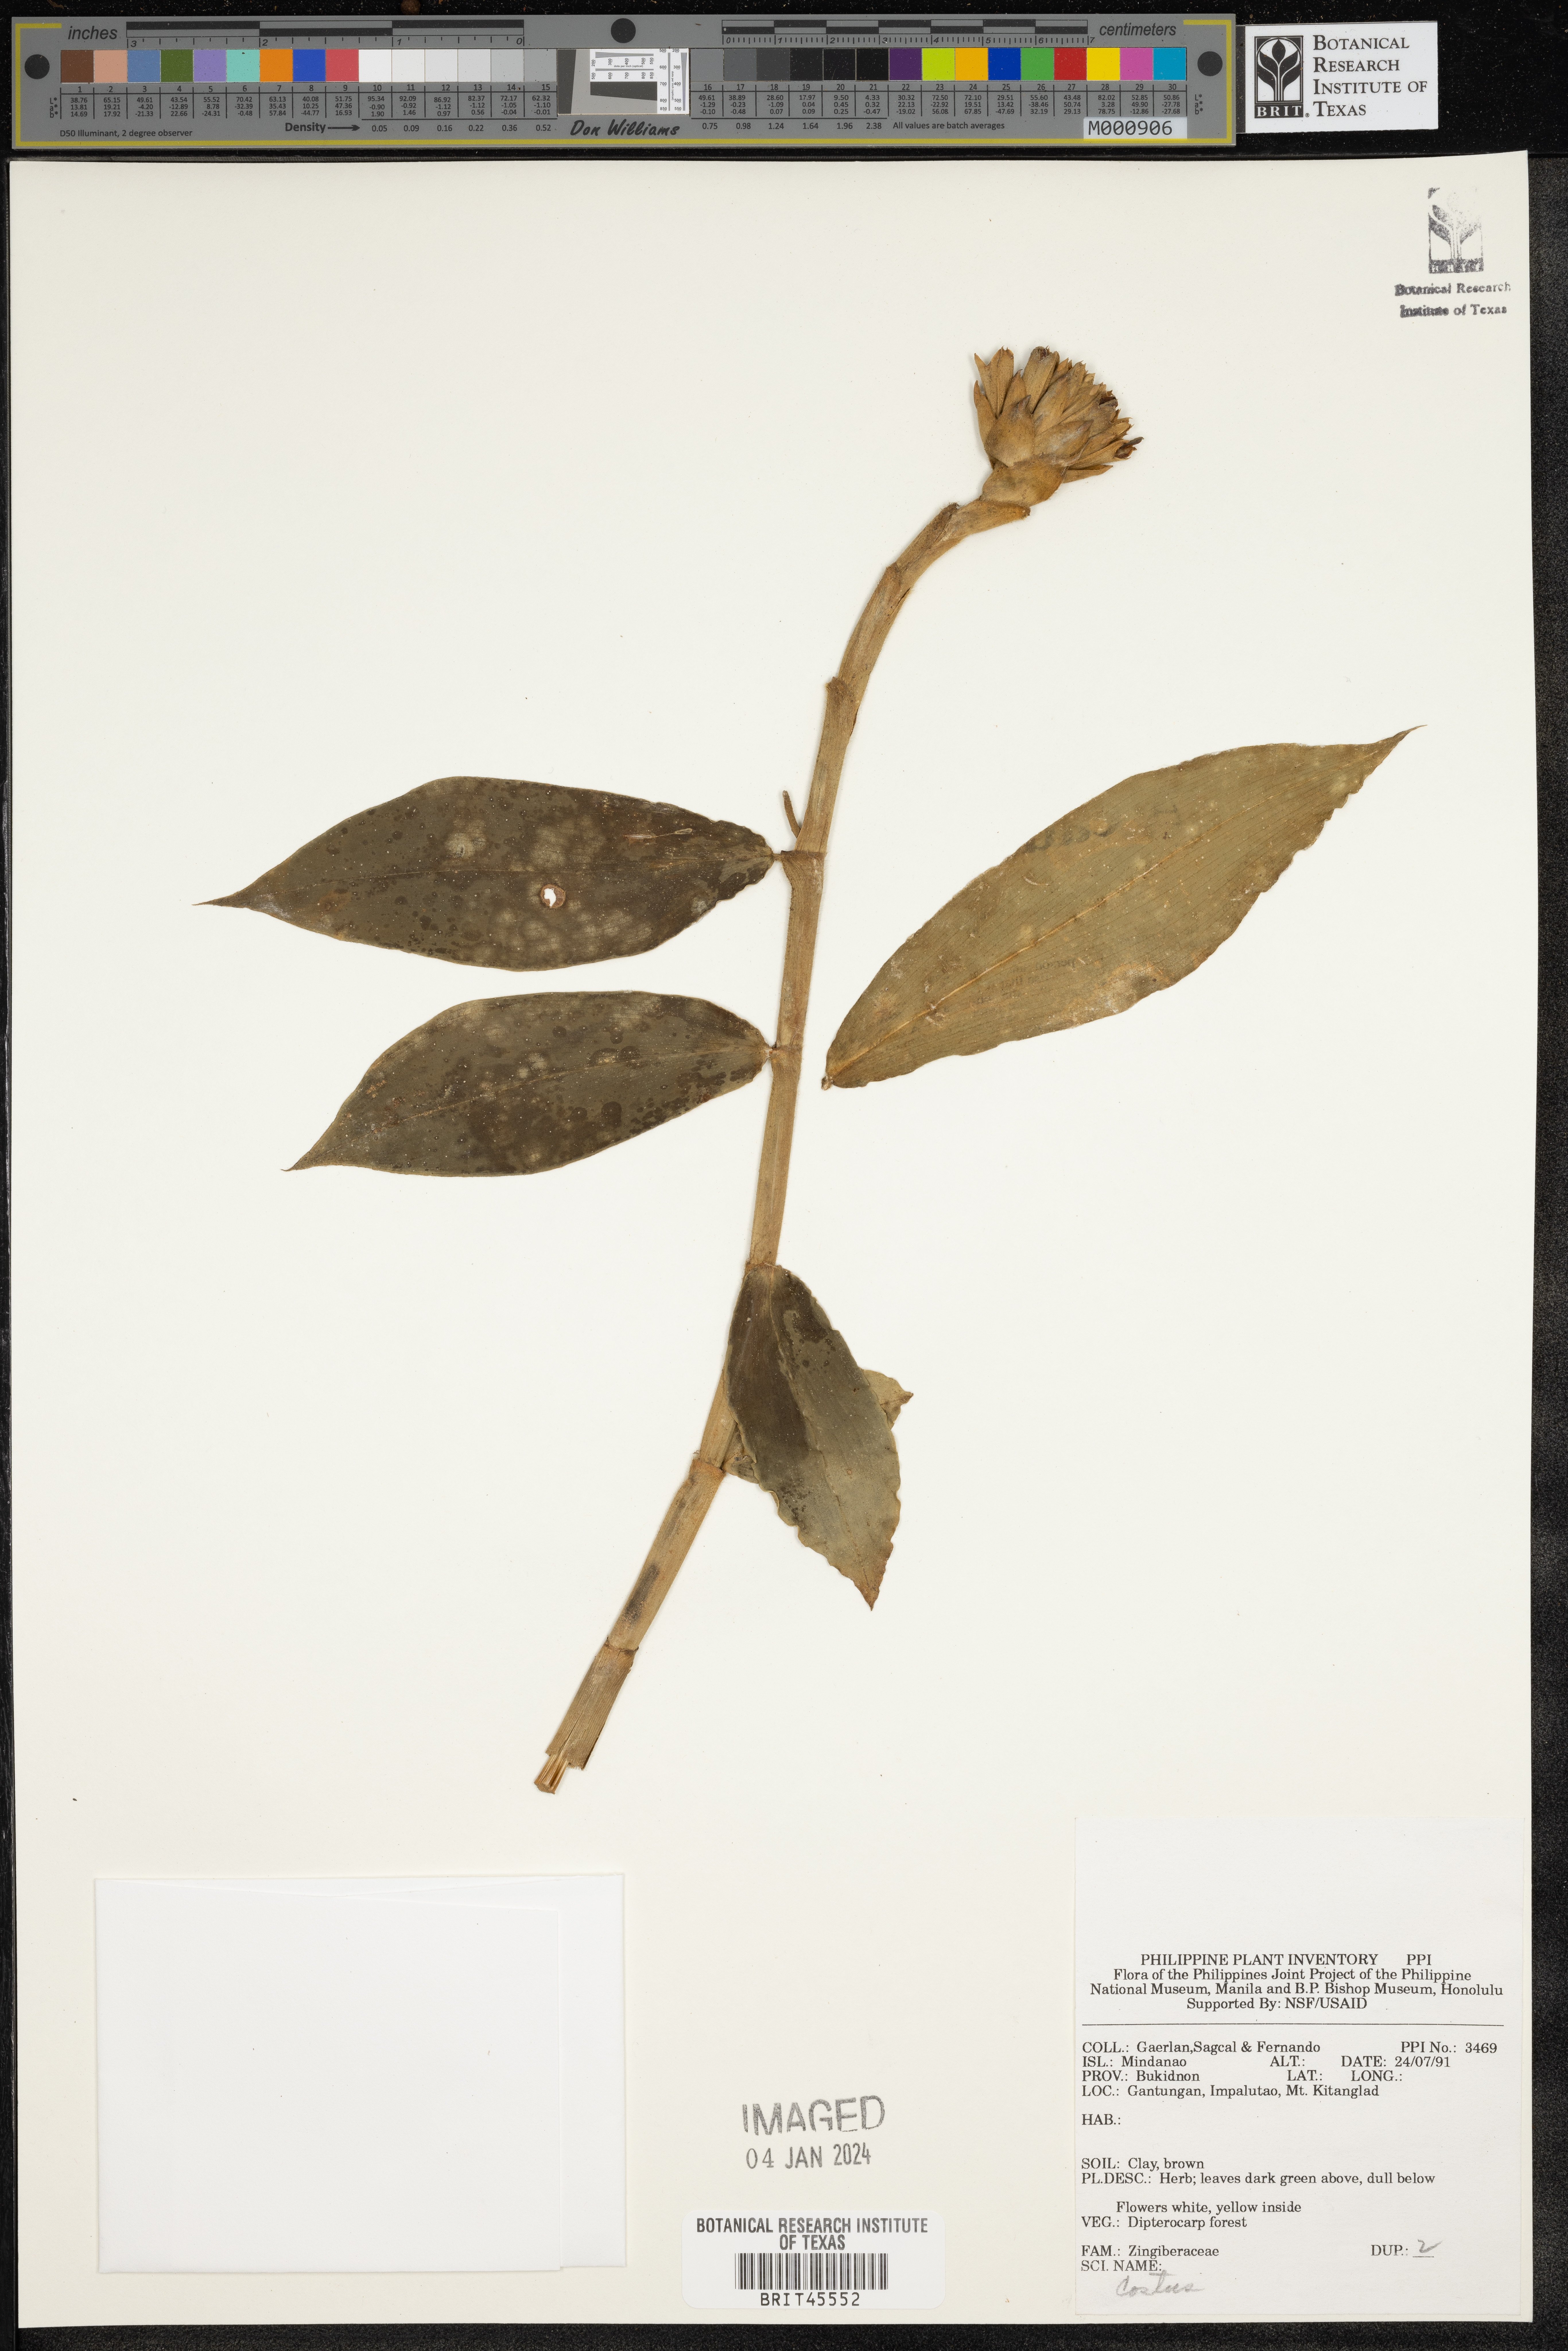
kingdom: Plantae
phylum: Tracheophyta
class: Liliopsida
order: Zingiberales
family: Costaceae
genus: Costus
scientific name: Costus
